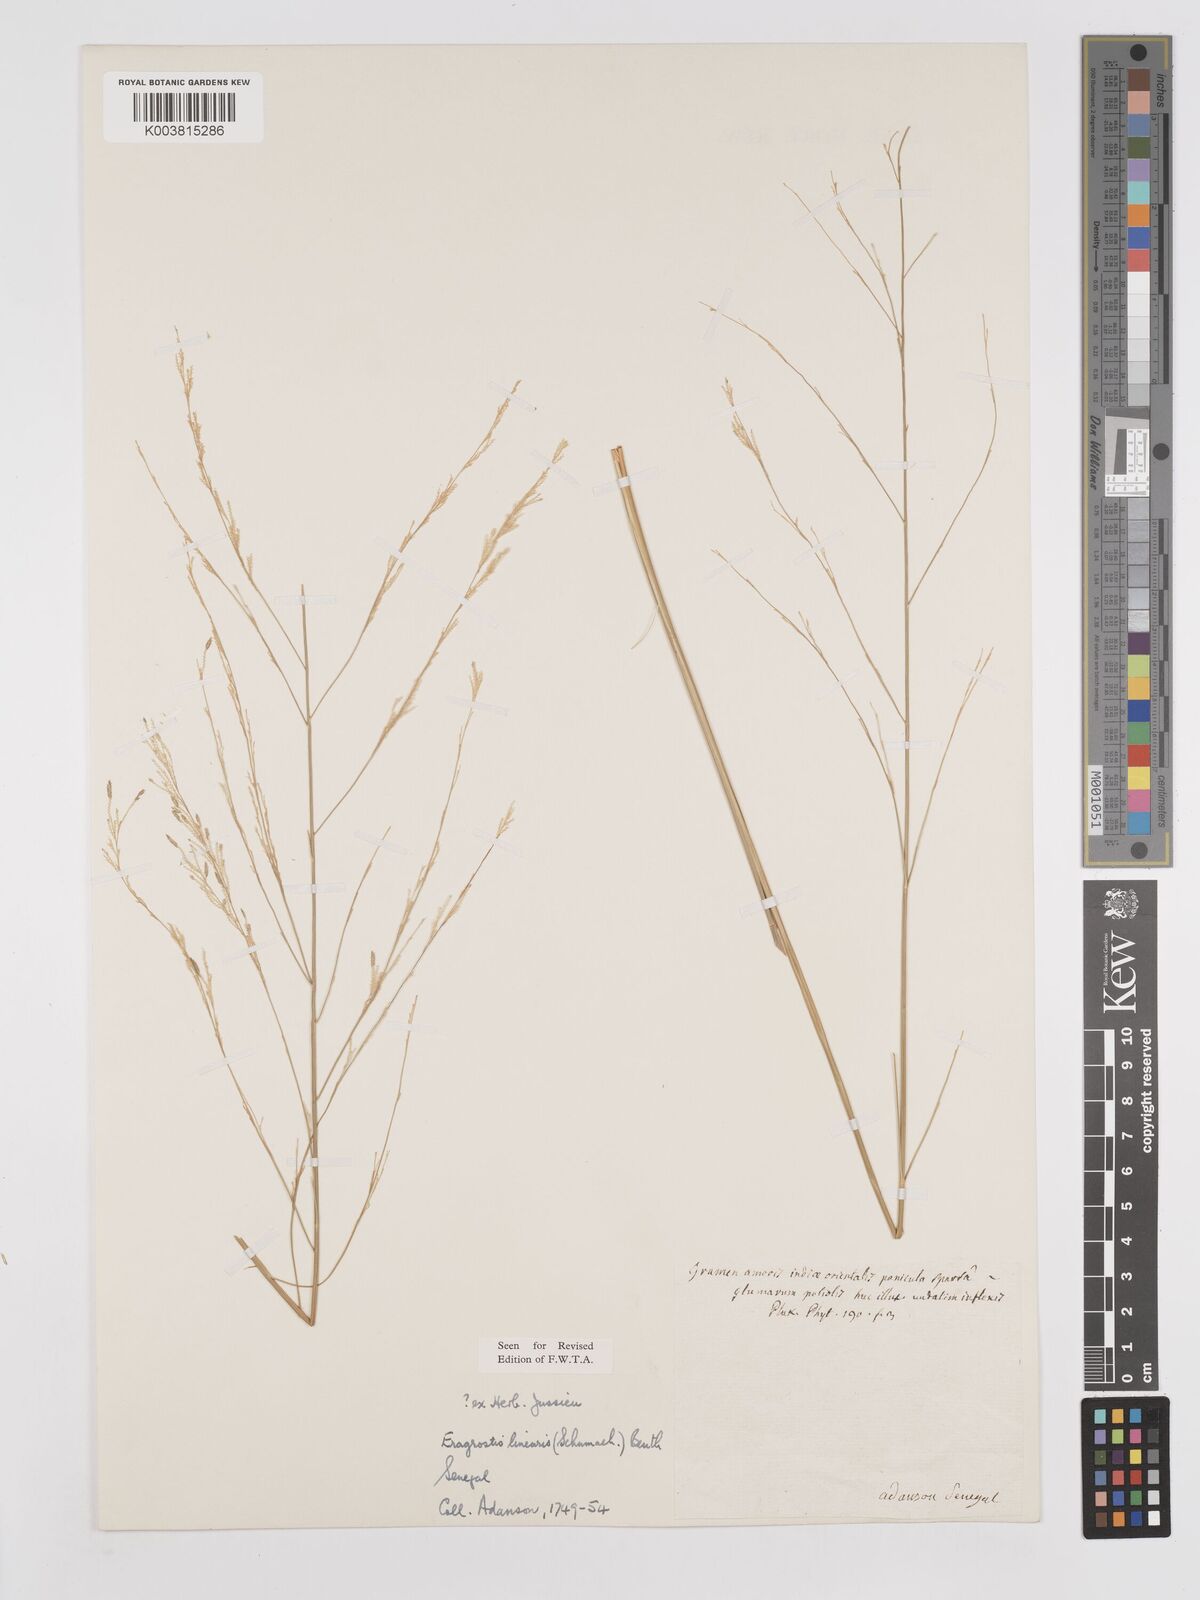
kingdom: Plantae
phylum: Tracheophyta
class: Liliopsida
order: Poales
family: Poaceae
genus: Eragrostis
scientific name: Eragrostis prolifera
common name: Dominican lovegrass
